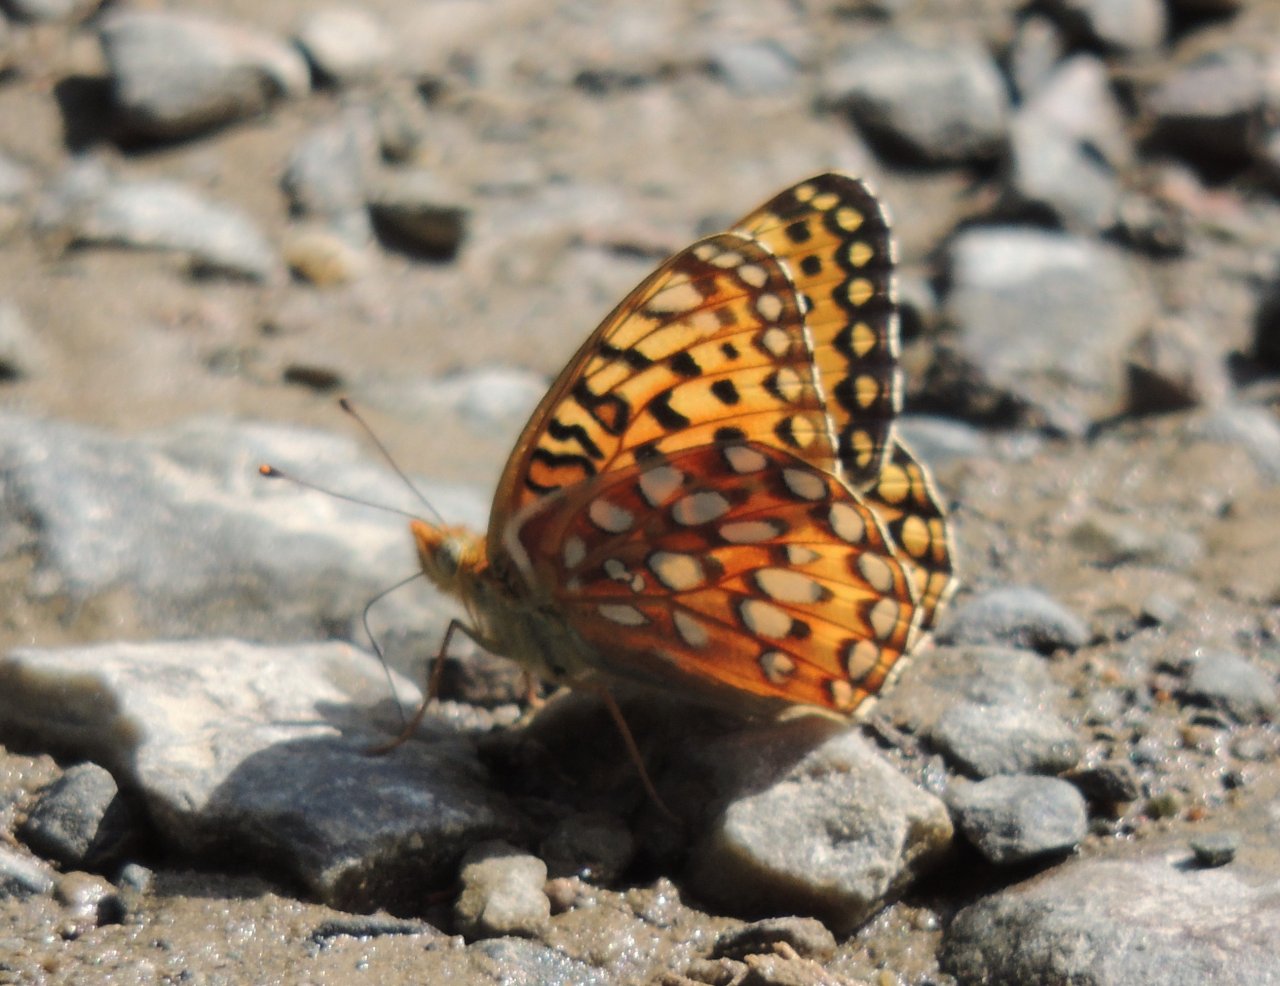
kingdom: Animalia
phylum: Arthropoda
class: Insecta
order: Lepidoptera
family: Nymphalidae
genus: Speyeria
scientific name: Speyeria zerene
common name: Zerene Fritillary
